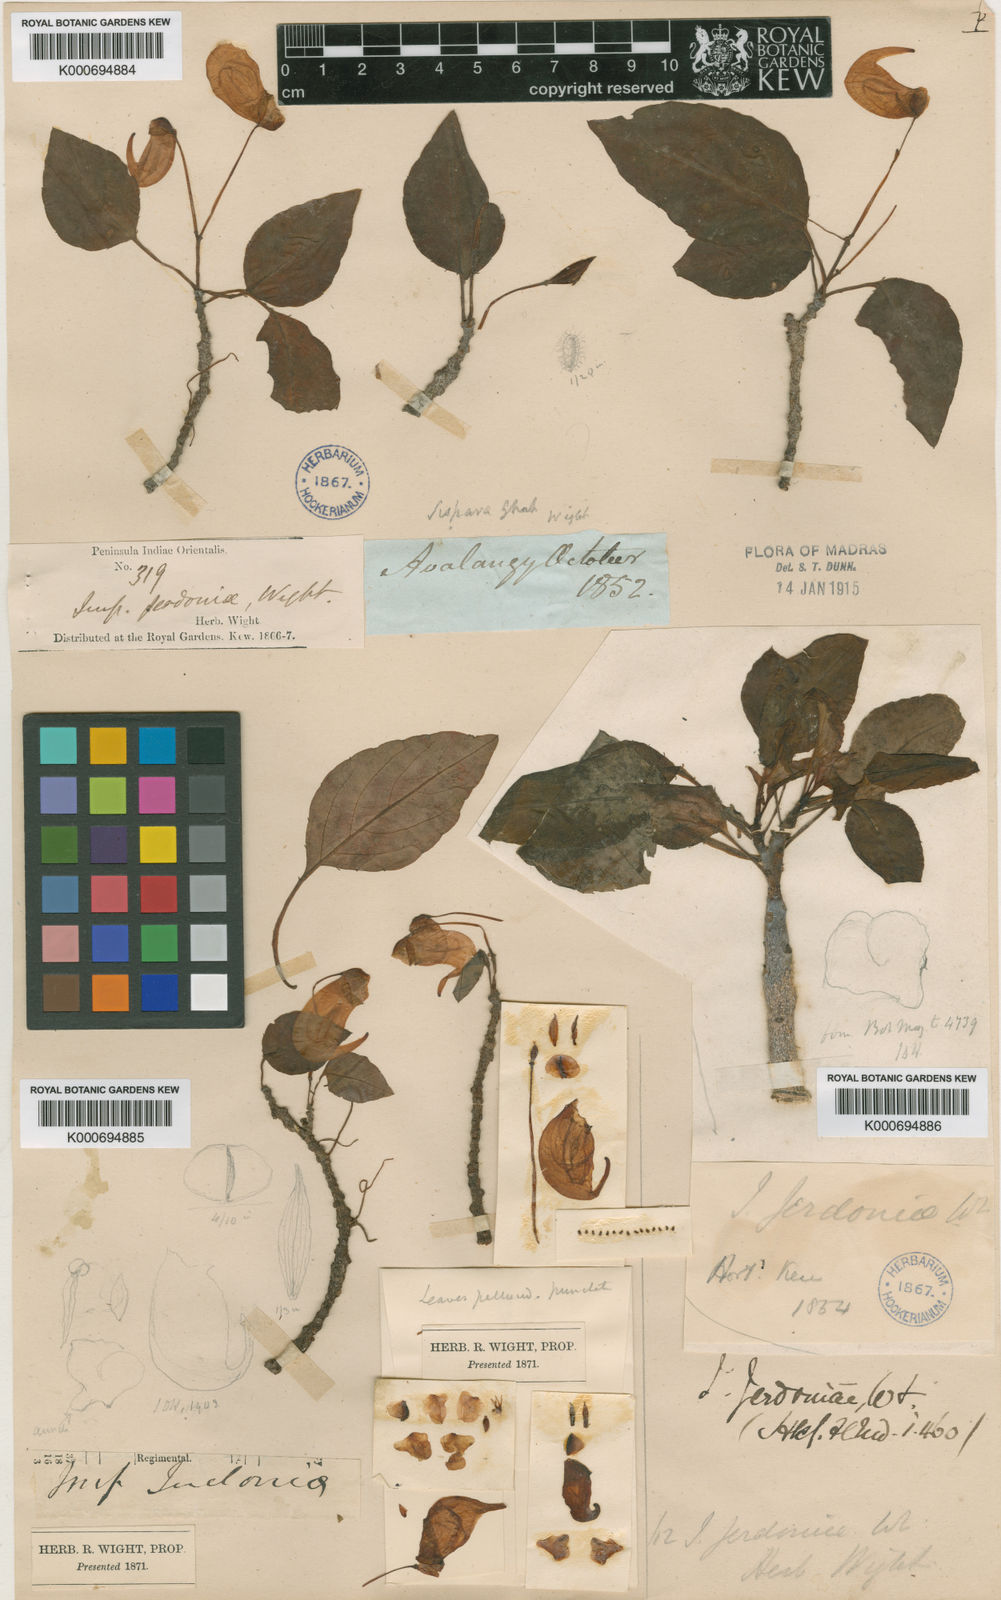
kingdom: Plantae
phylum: Tracheophyta
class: Magnoliopsida
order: Ericales
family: Balsaminaceae
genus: Impatiens
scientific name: Impatiens jerdoniae
